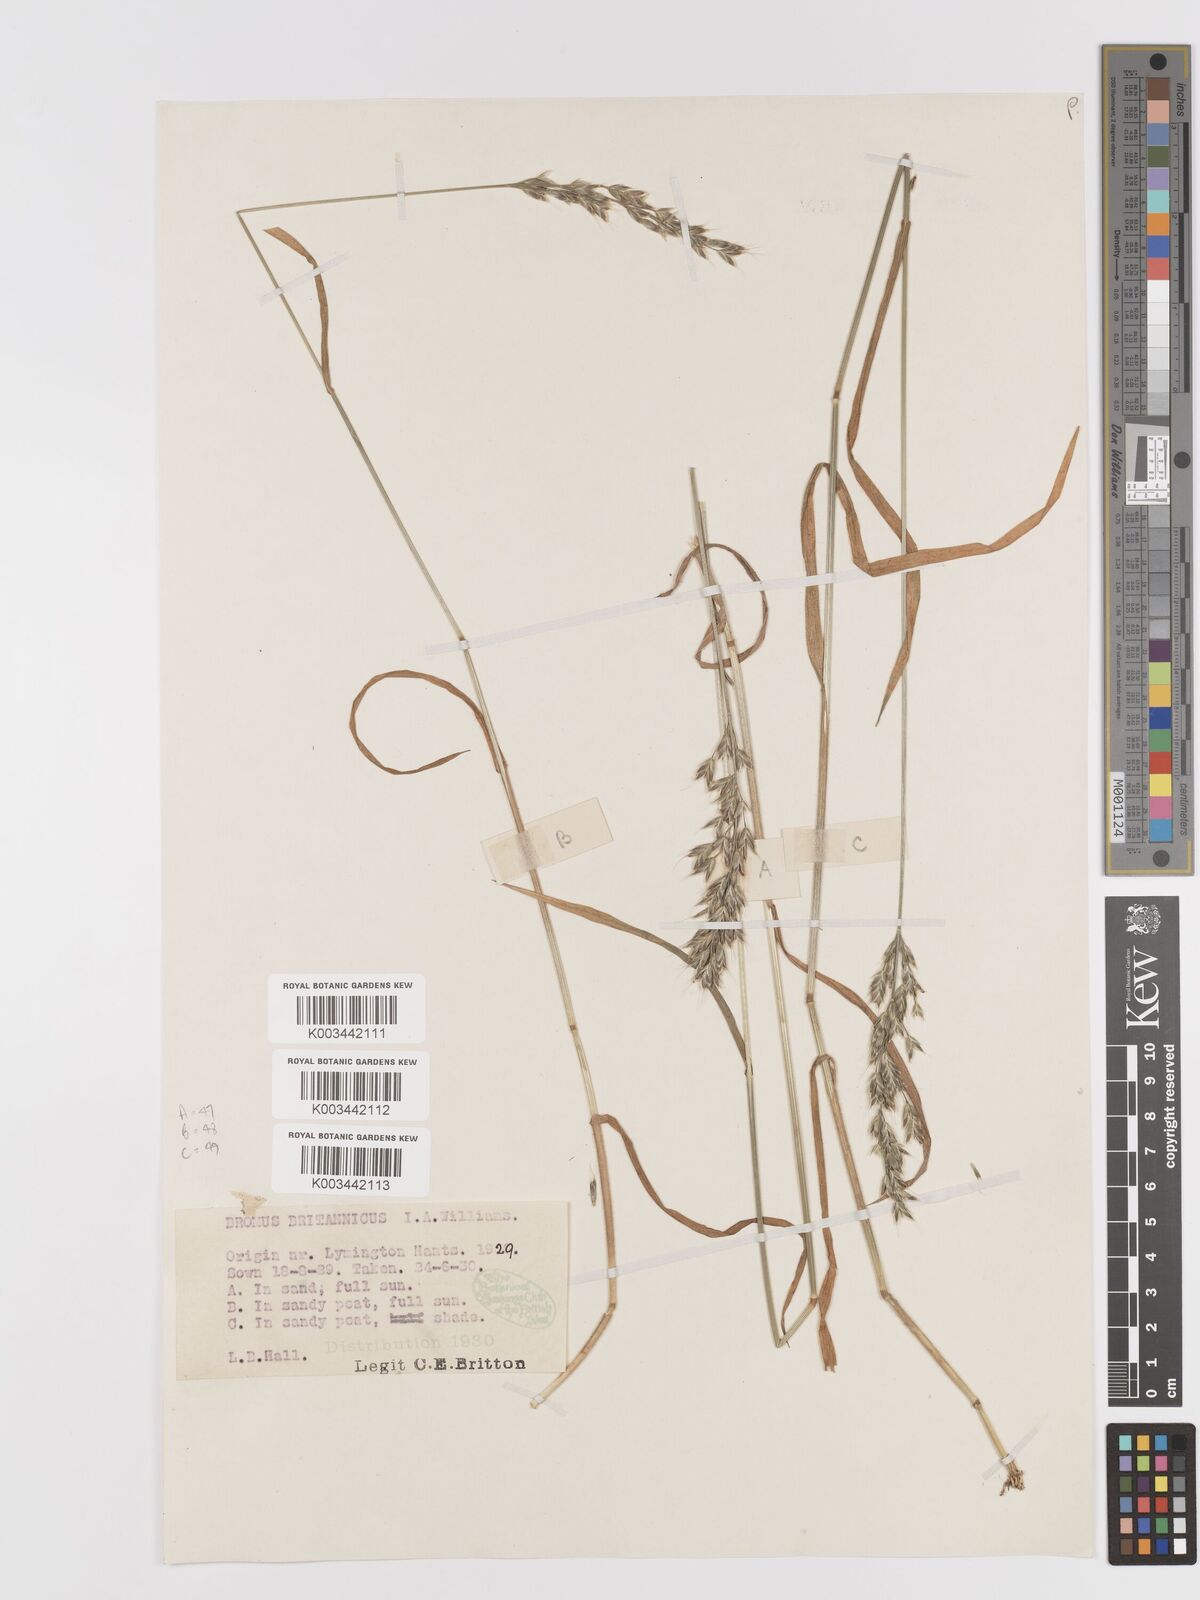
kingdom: Plantae
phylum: Tracheophyta
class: Liliopsida
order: Poales
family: Poaceae
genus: Bromus
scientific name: Bromus lepidus
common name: Slender soft-brome
